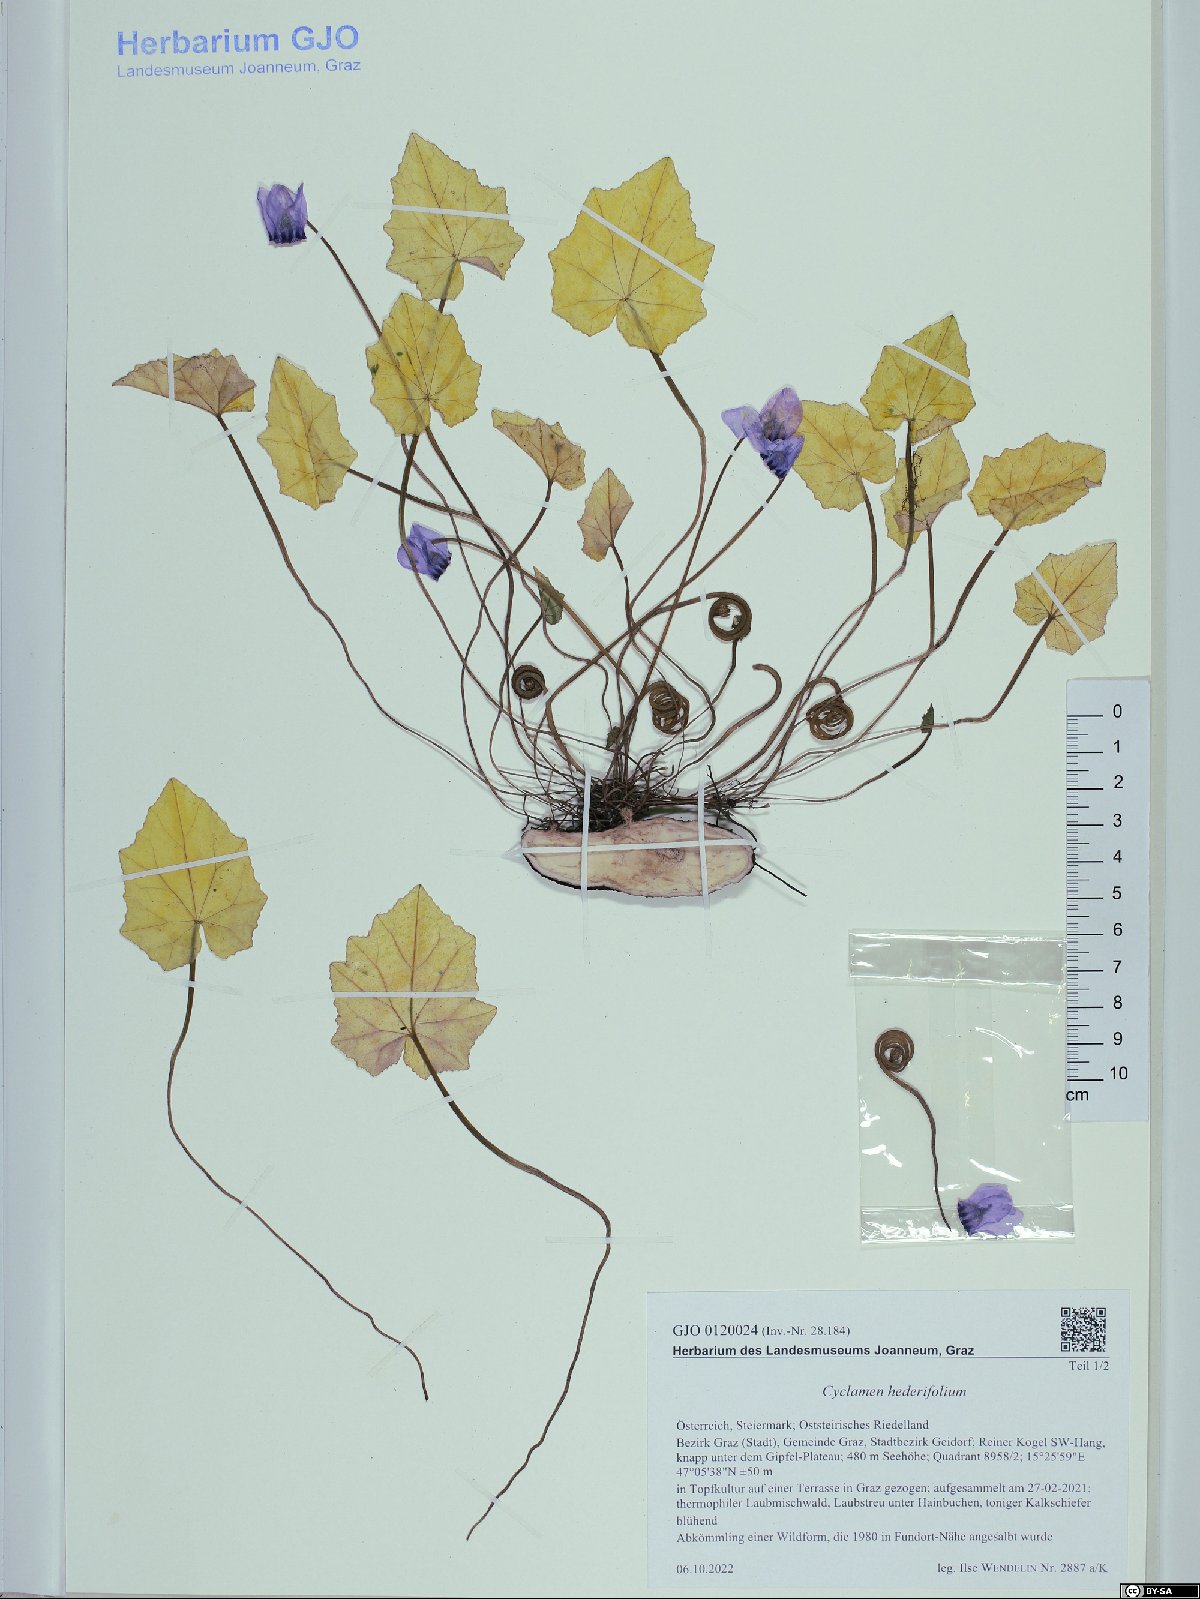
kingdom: Plantae
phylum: Tracheophyta
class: Magnoliopsida
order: Ericales
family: Primulaceae
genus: Cyclamen
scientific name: Cyclamen hederifolium
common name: Sowbread
